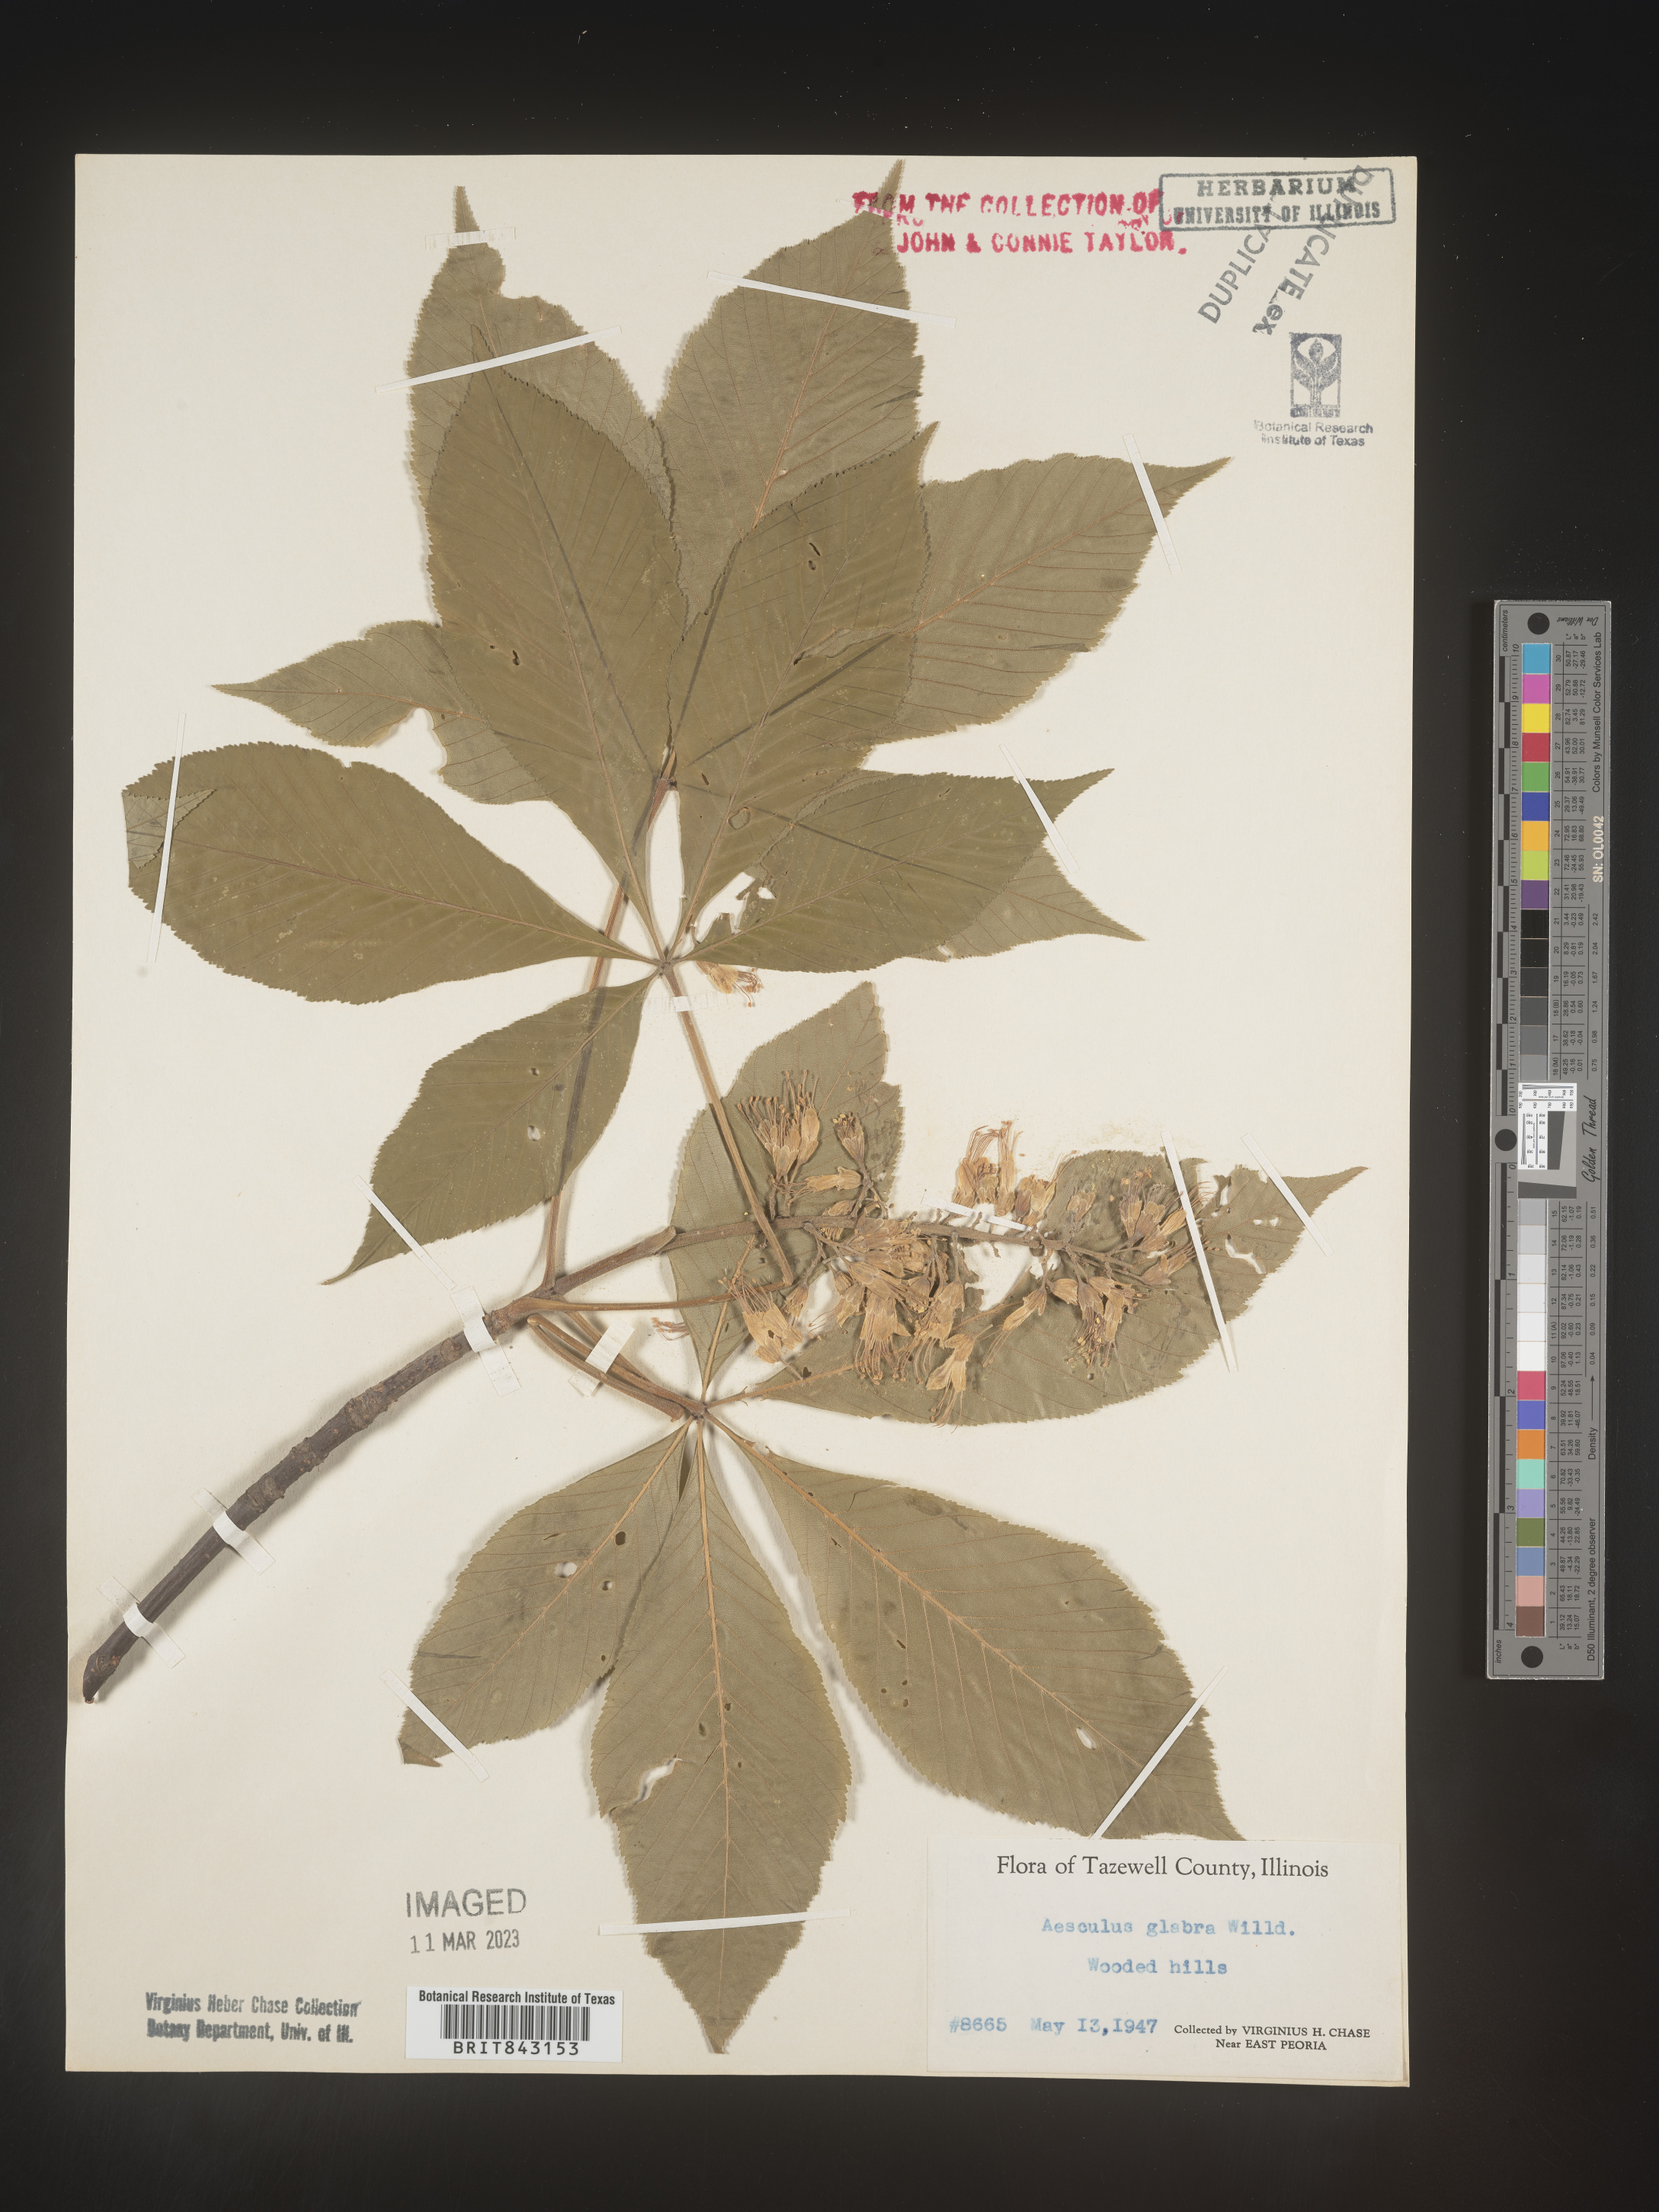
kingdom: Plantae
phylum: Tracheophyta
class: Magnoliopsida
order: Sapindales
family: Sapindaceae
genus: Aesculus
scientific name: Aesculus glabra
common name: Ohio buckeye
